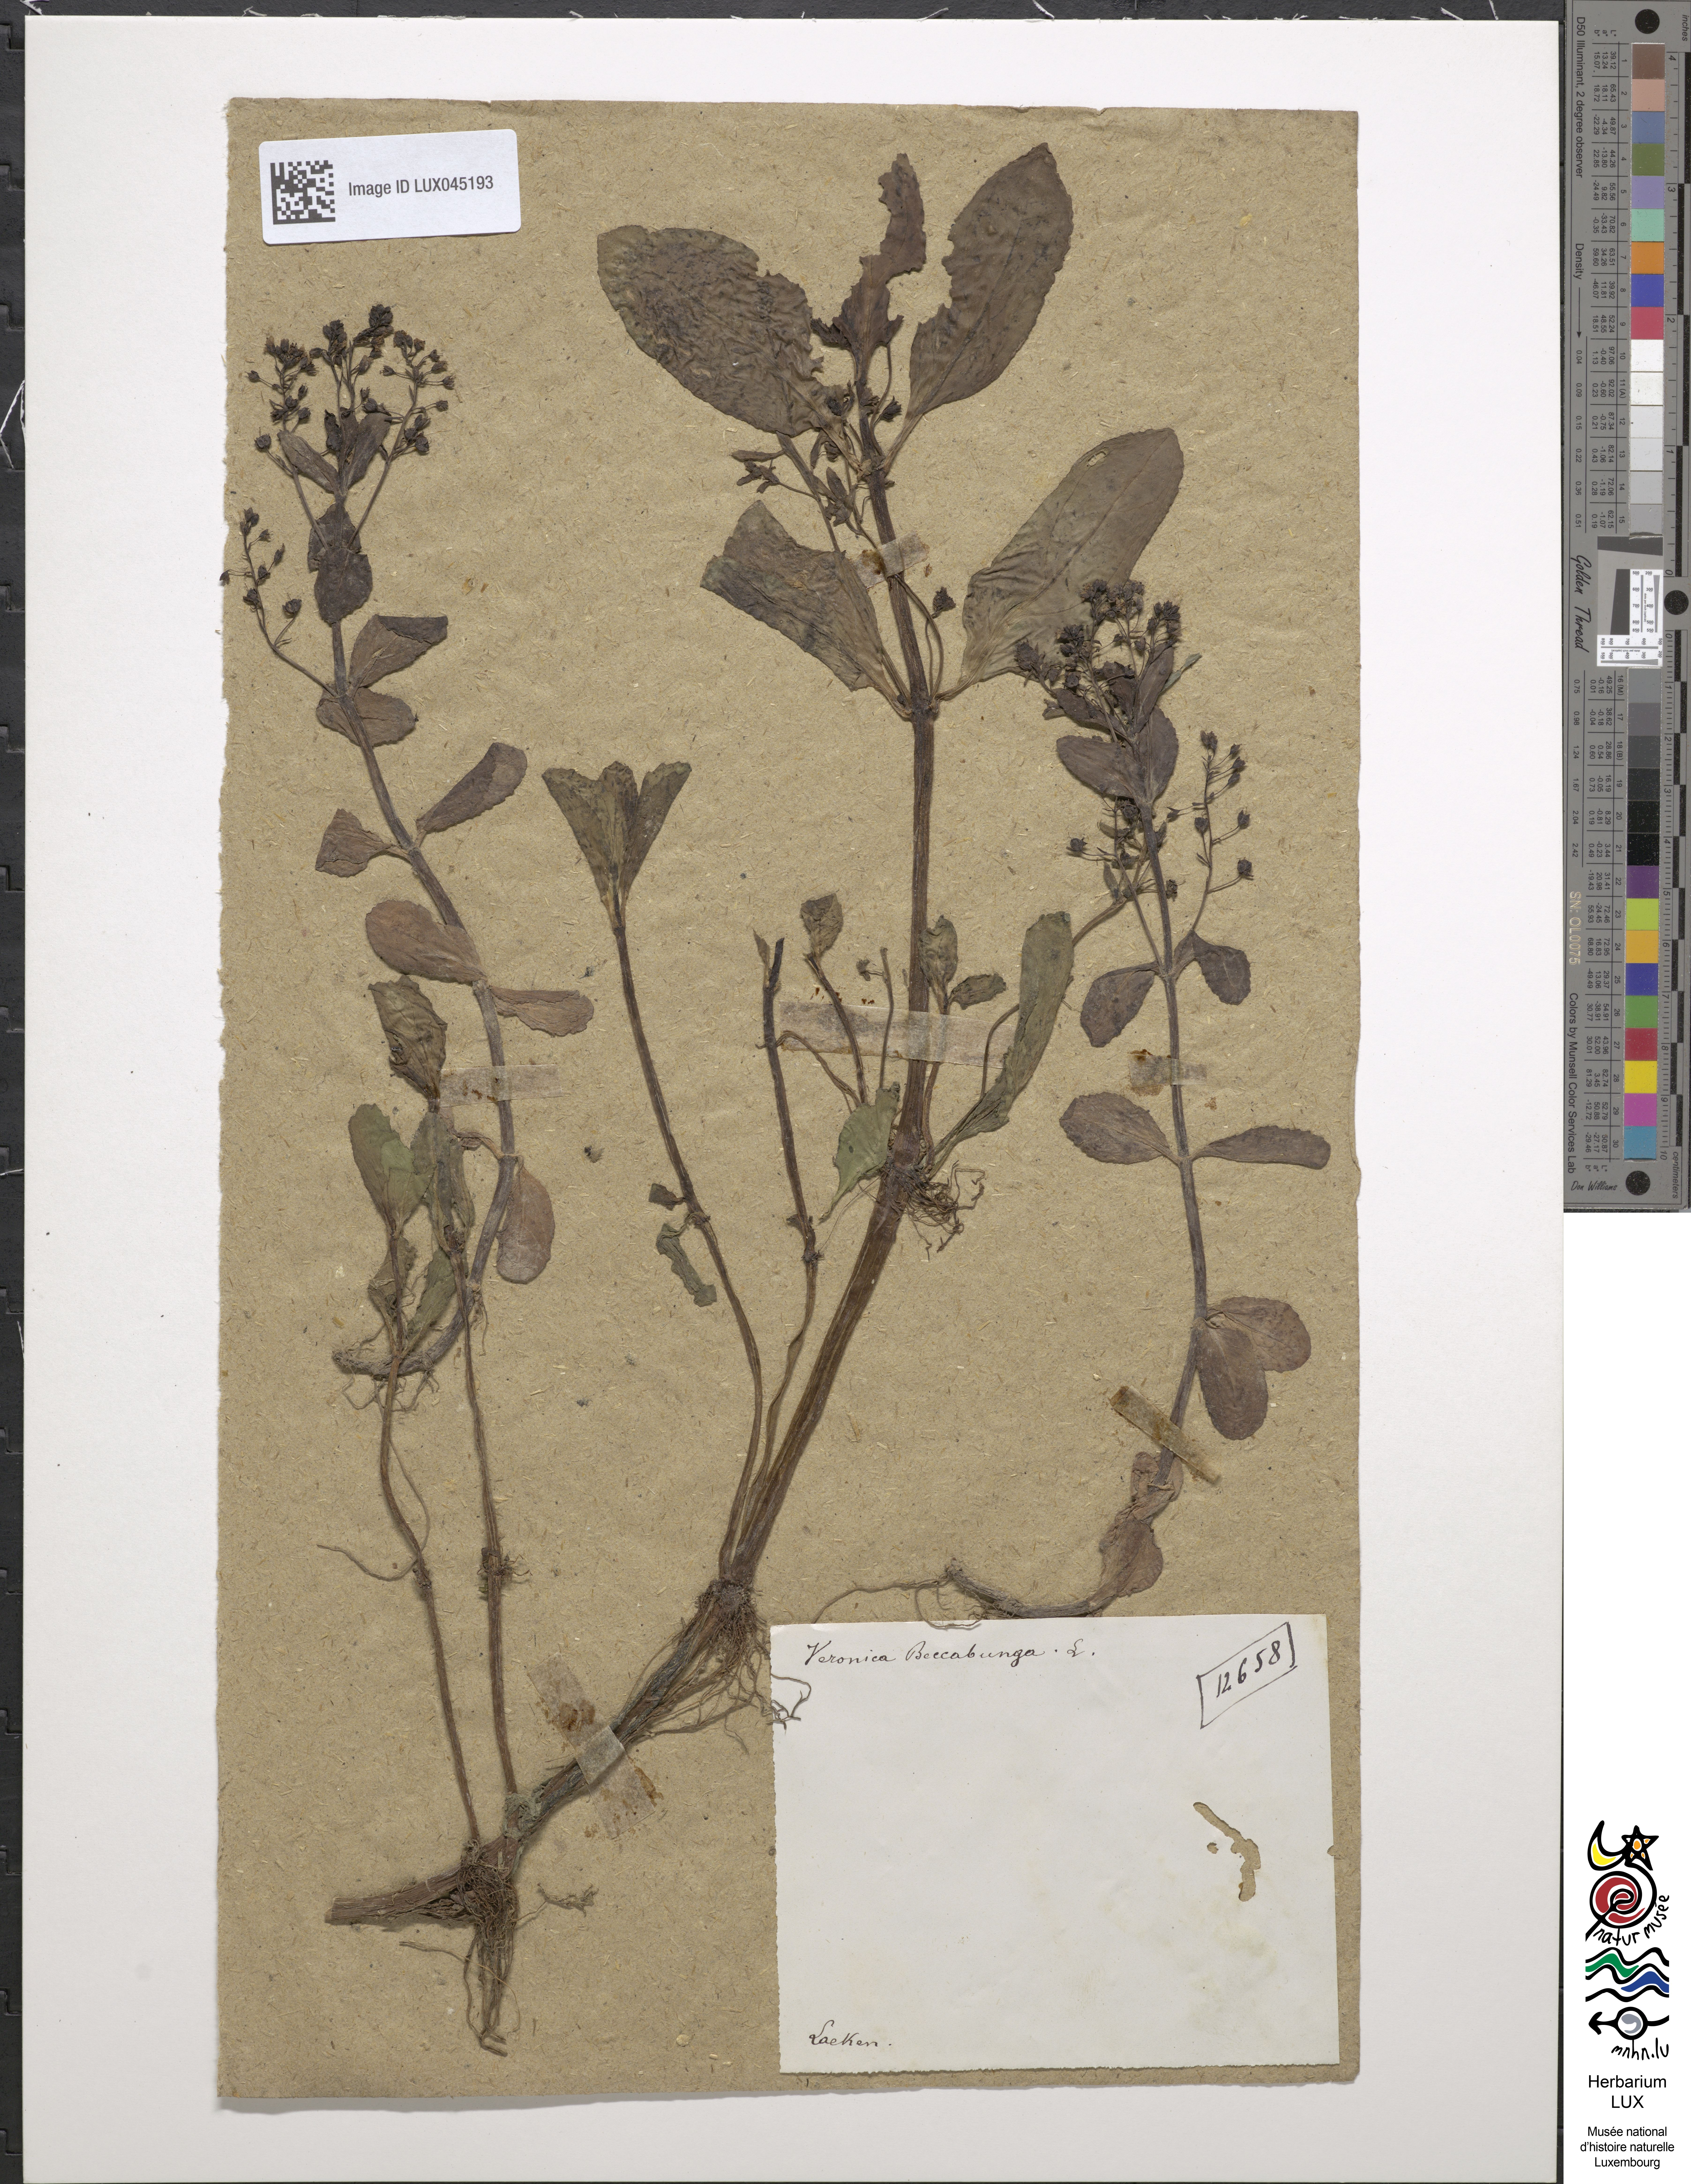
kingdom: Plantae
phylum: Tracheophyta
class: Magnoliopsida
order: Lamiales
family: Plantaginaceae
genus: Veronica
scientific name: Veronica beccabunga
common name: Brooklime
